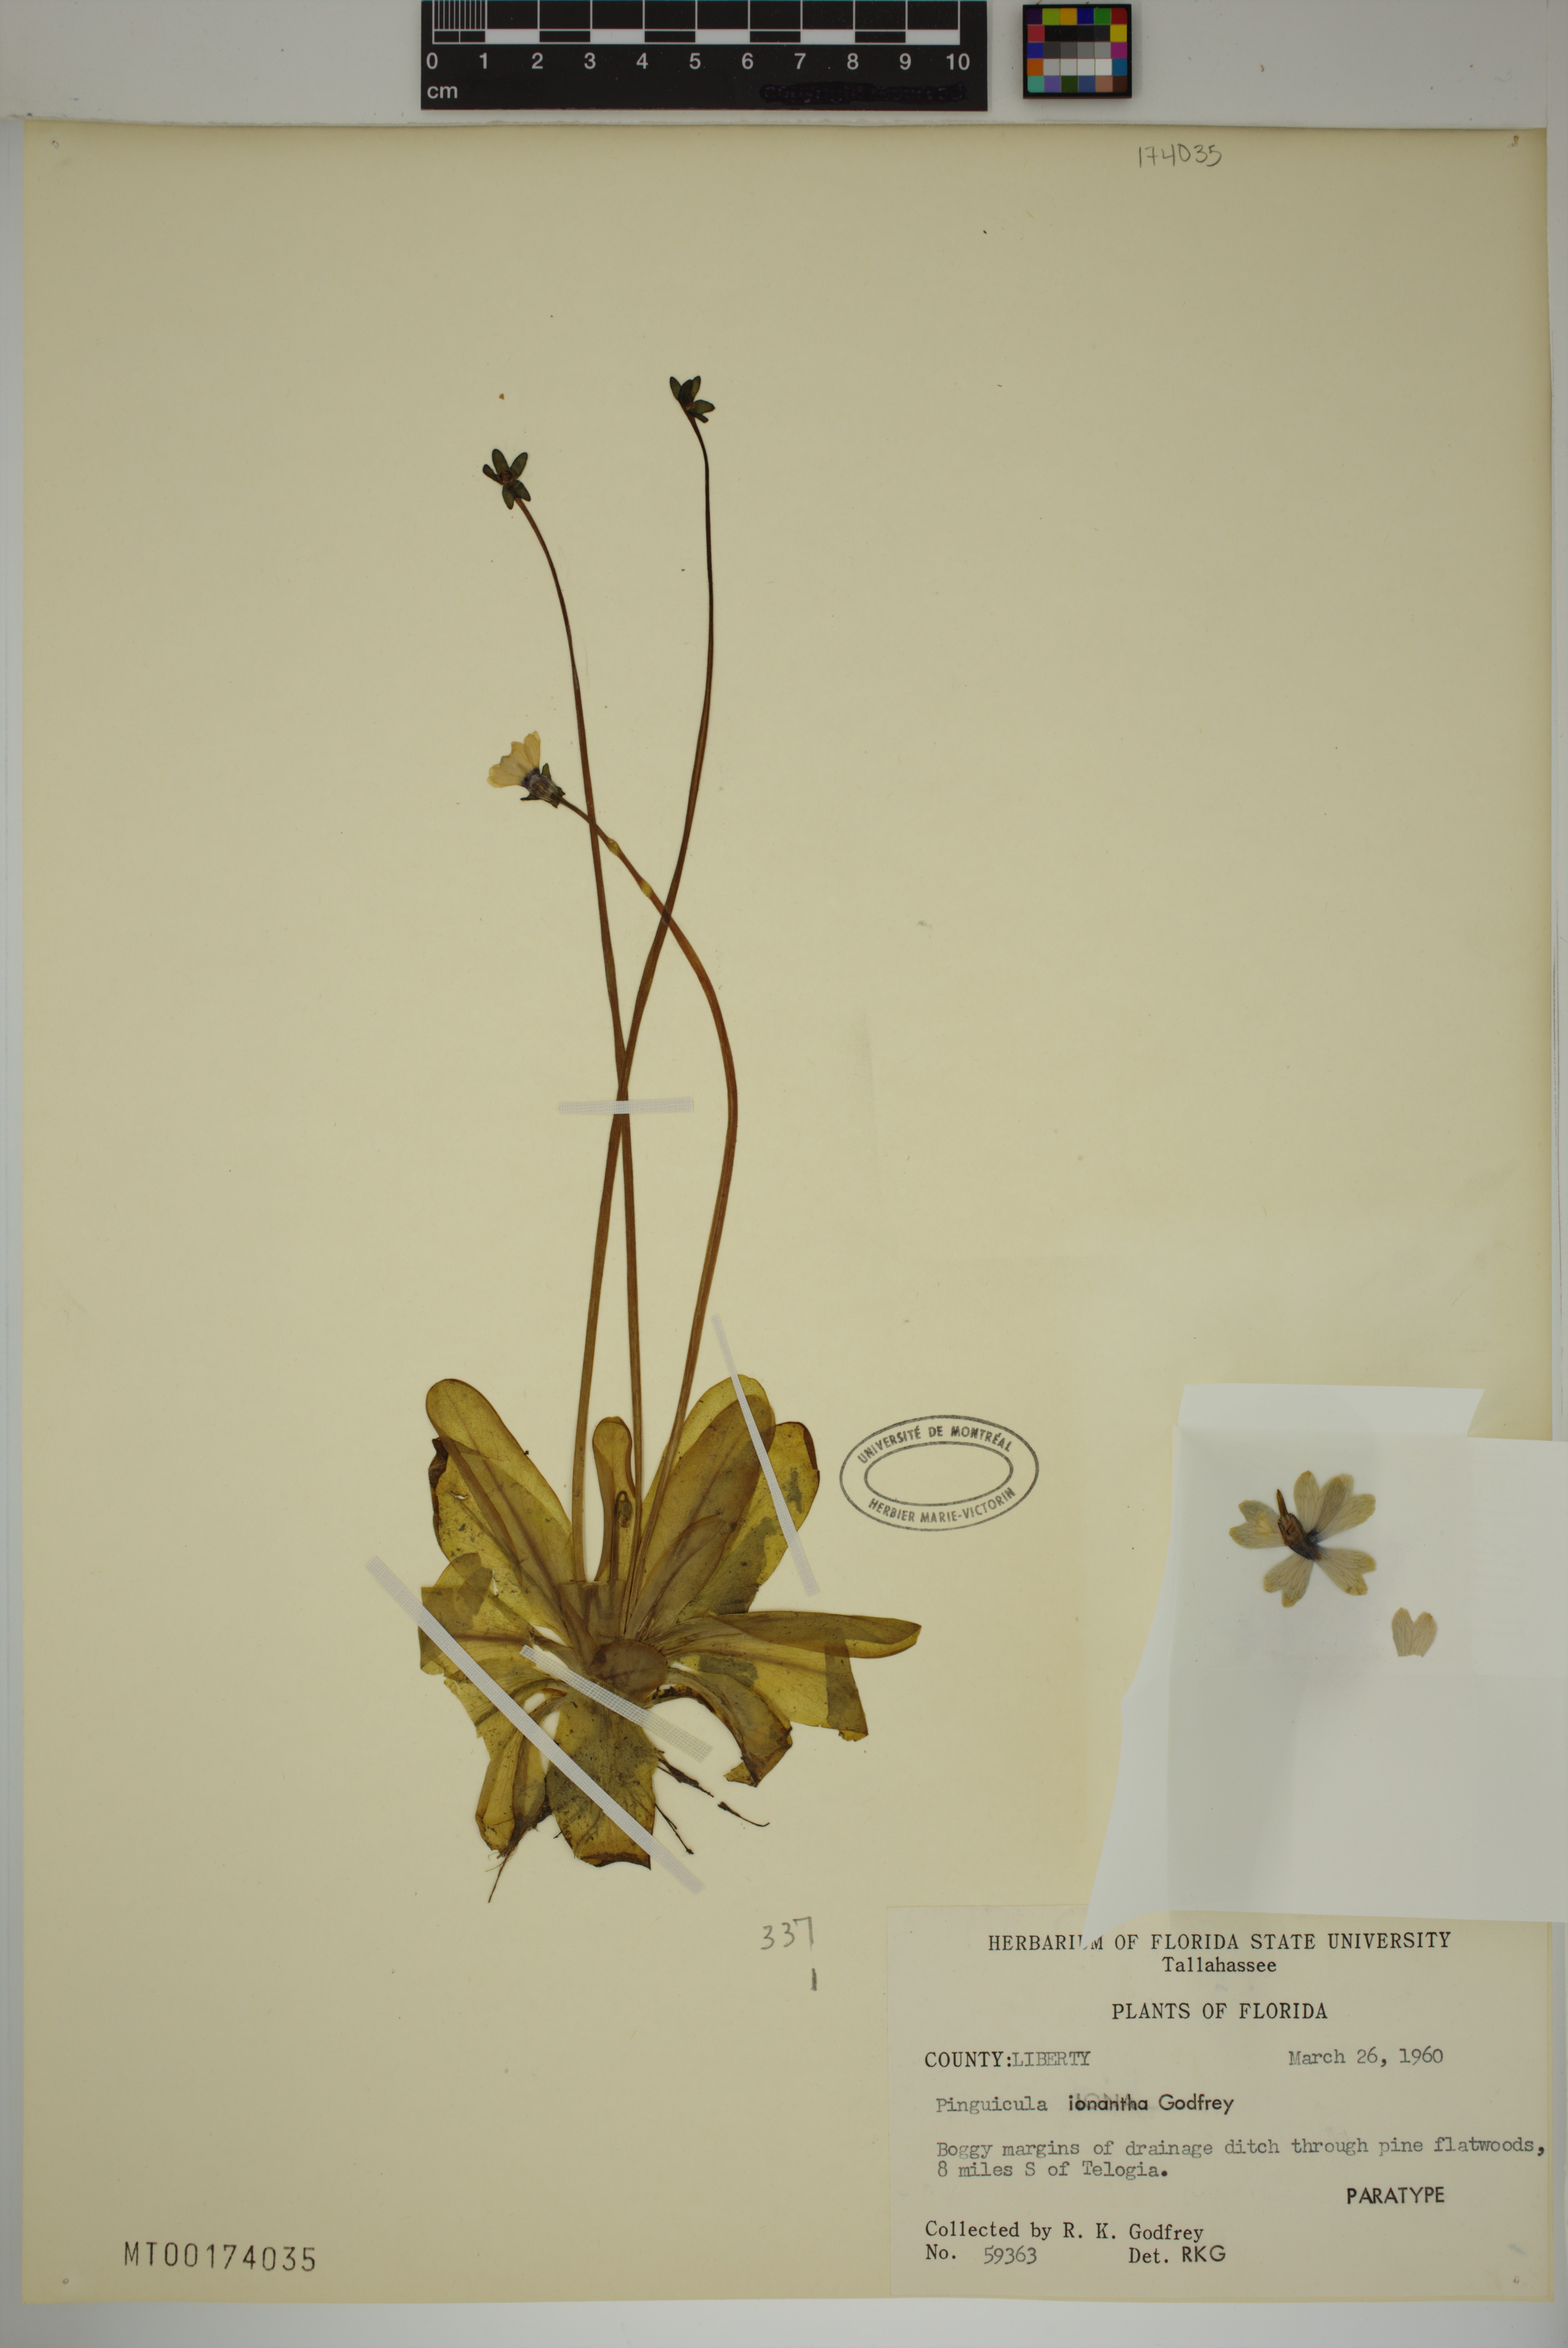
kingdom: Plantae
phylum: Tracheophyta
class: Magnoliopsida
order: Lamiales
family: Lentibulariaceae
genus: Pinguicula
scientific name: Pinguicula ionantha
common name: Godfrey's butterwort
